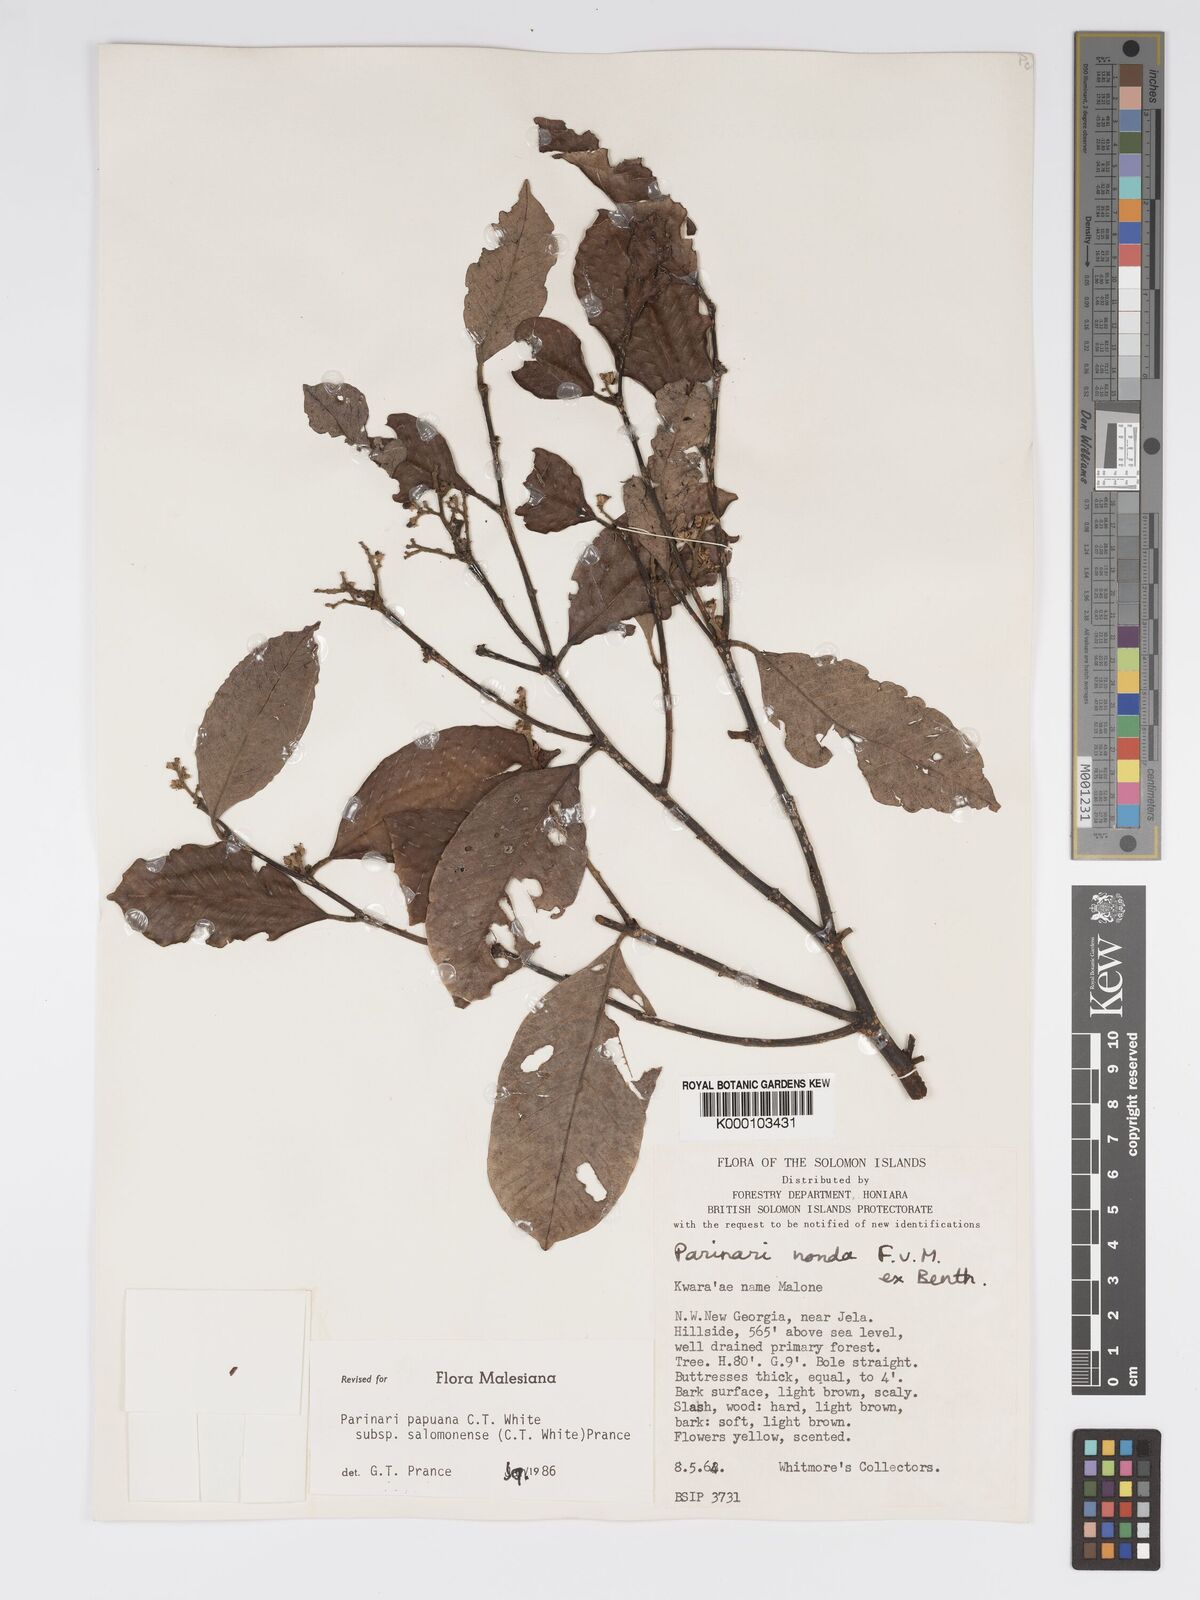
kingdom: Plantae
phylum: Tracheophyta
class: Magnoliopsida
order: Malpighiales
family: Chrysobalanaceae
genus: Parinari
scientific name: Parinari papuana
